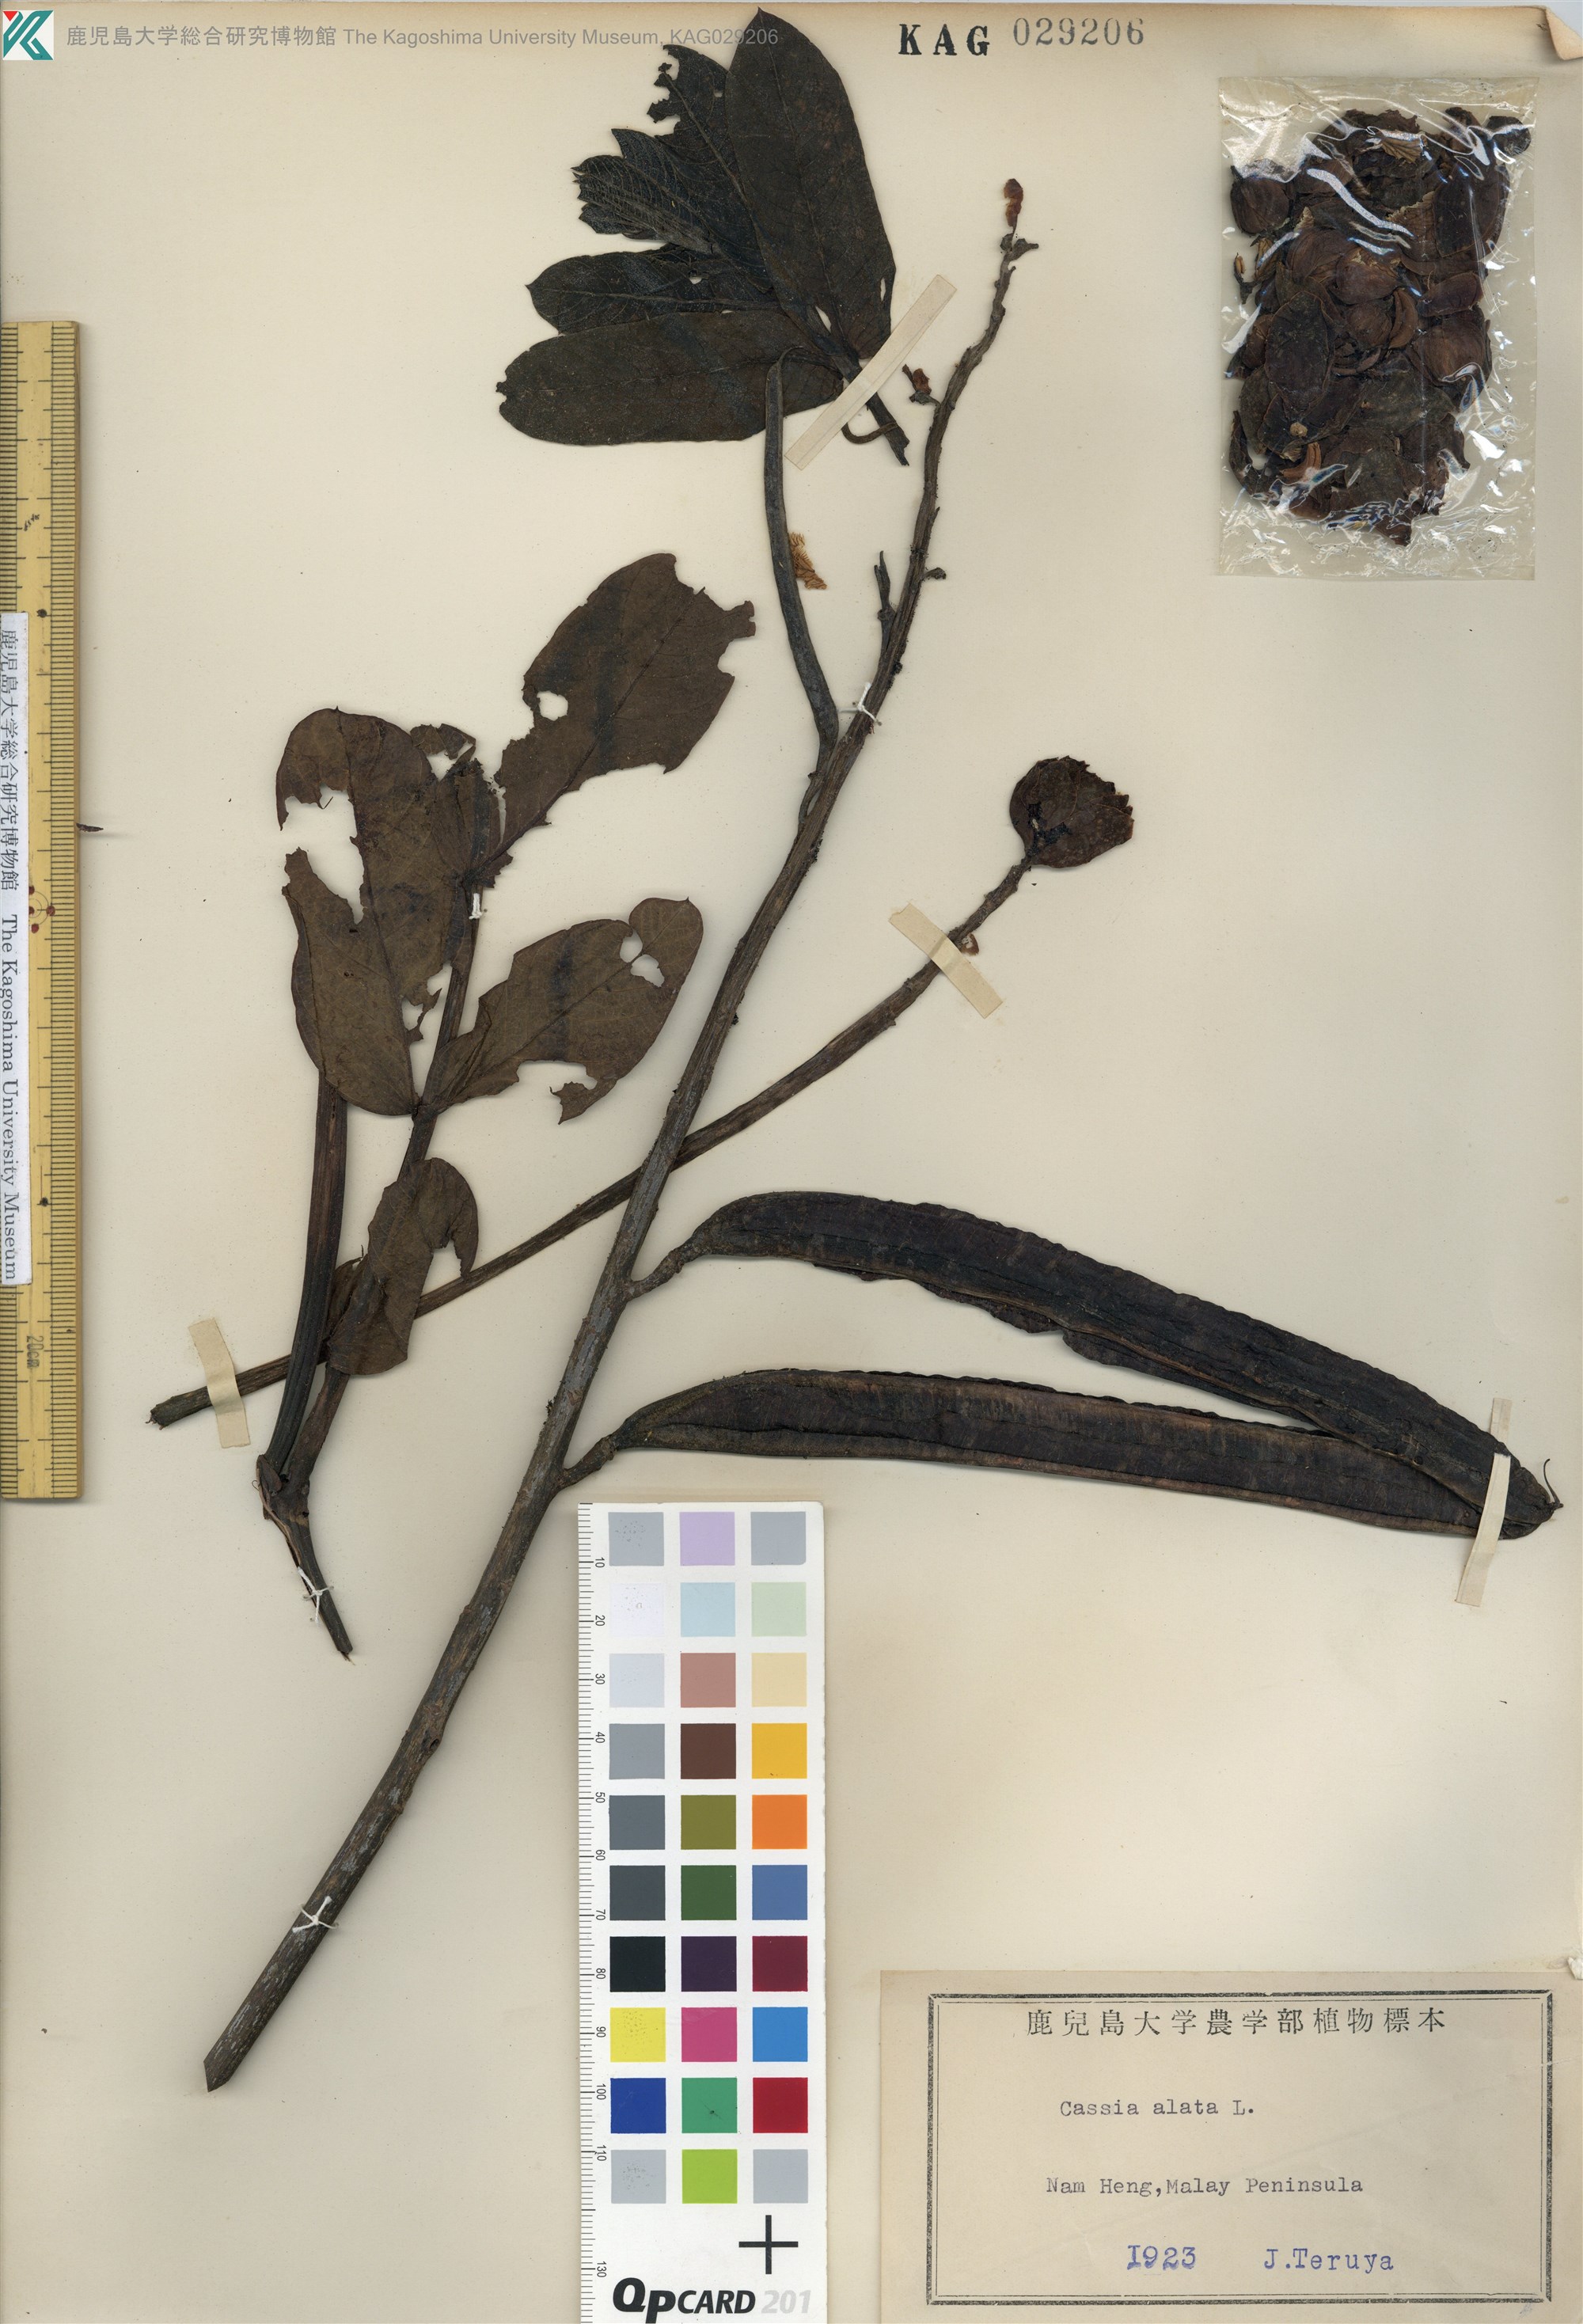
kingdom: Plantae
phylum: Tracheophyta
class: Magnoliopsida
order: Fabales
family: Fabaceae
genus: Senna
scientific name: Senna alata
